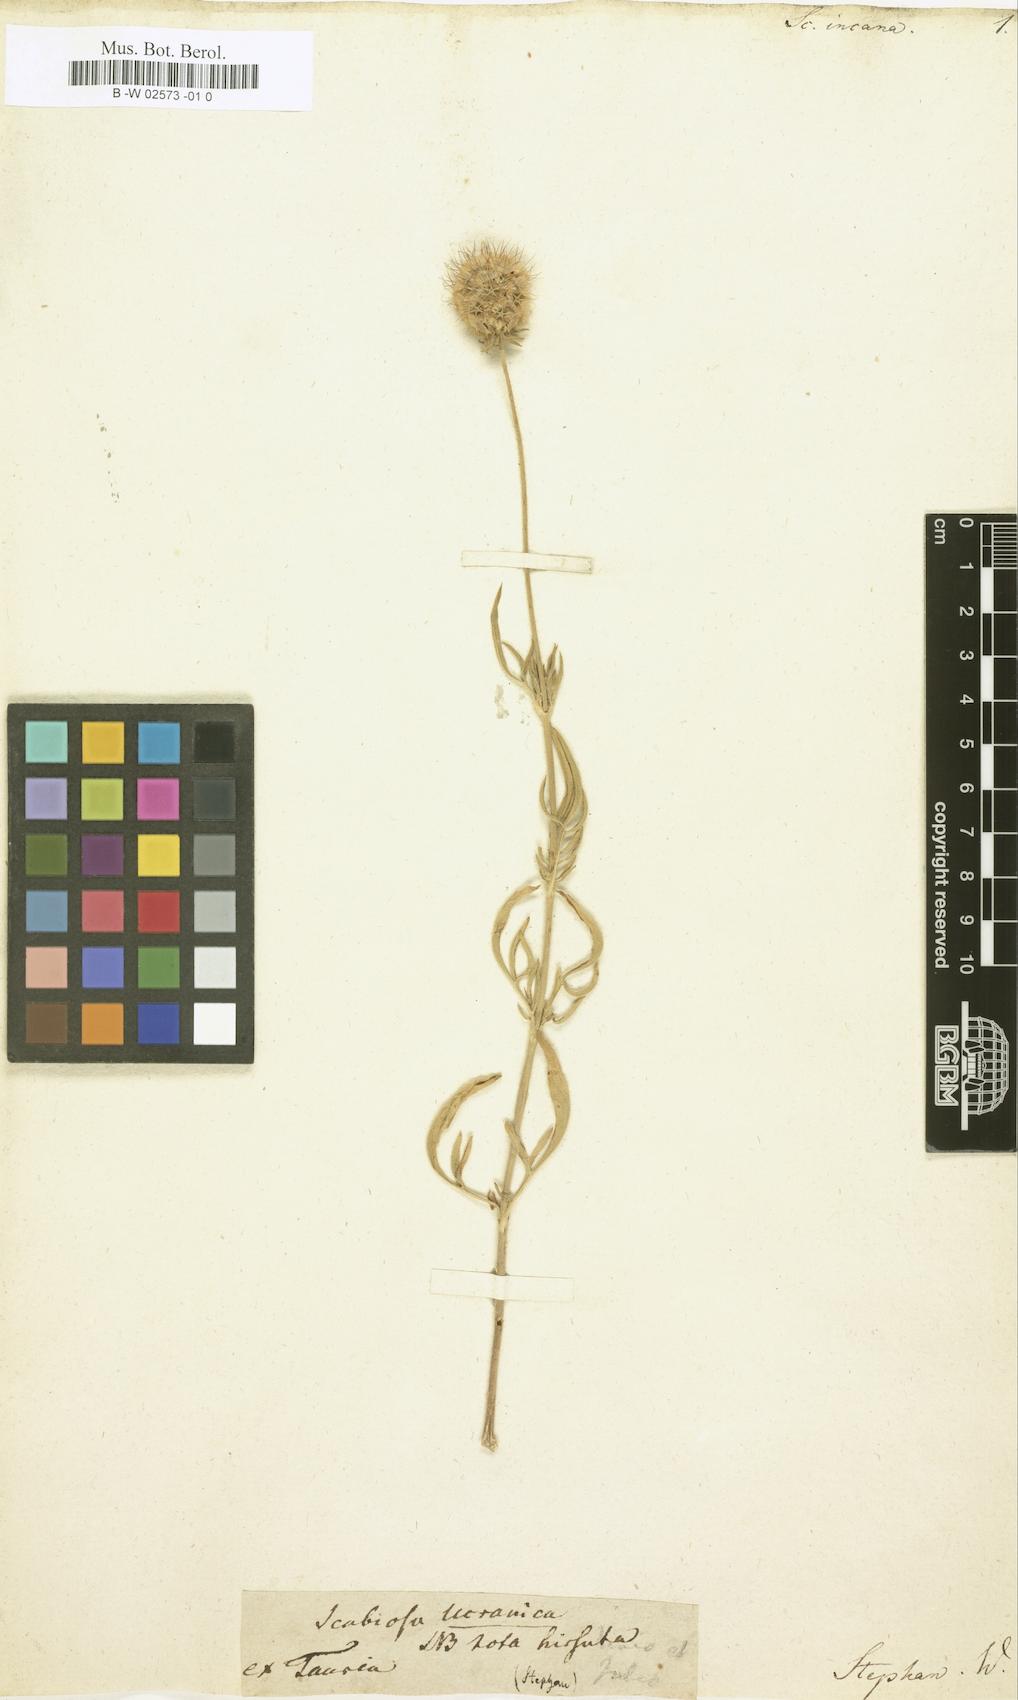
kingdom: Plantae
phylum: Tracheophyta
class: Magnoliopsida
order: Dipsacales
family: Caprifoliaceae
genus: Scabiosa
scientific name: Scabiosa
